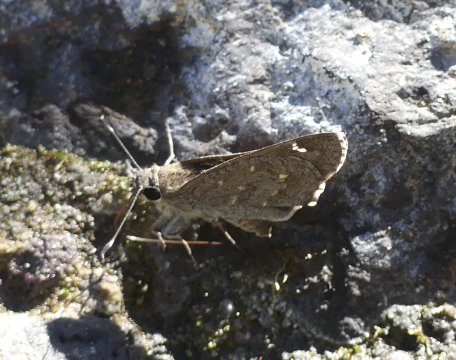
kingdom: Animalia
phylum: Arthropoda
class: Insecta
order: Lepidoptera
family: Hesperiidae
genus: Mastor
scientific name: Mastor aenus
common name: Bronze Roadside-Skipper
